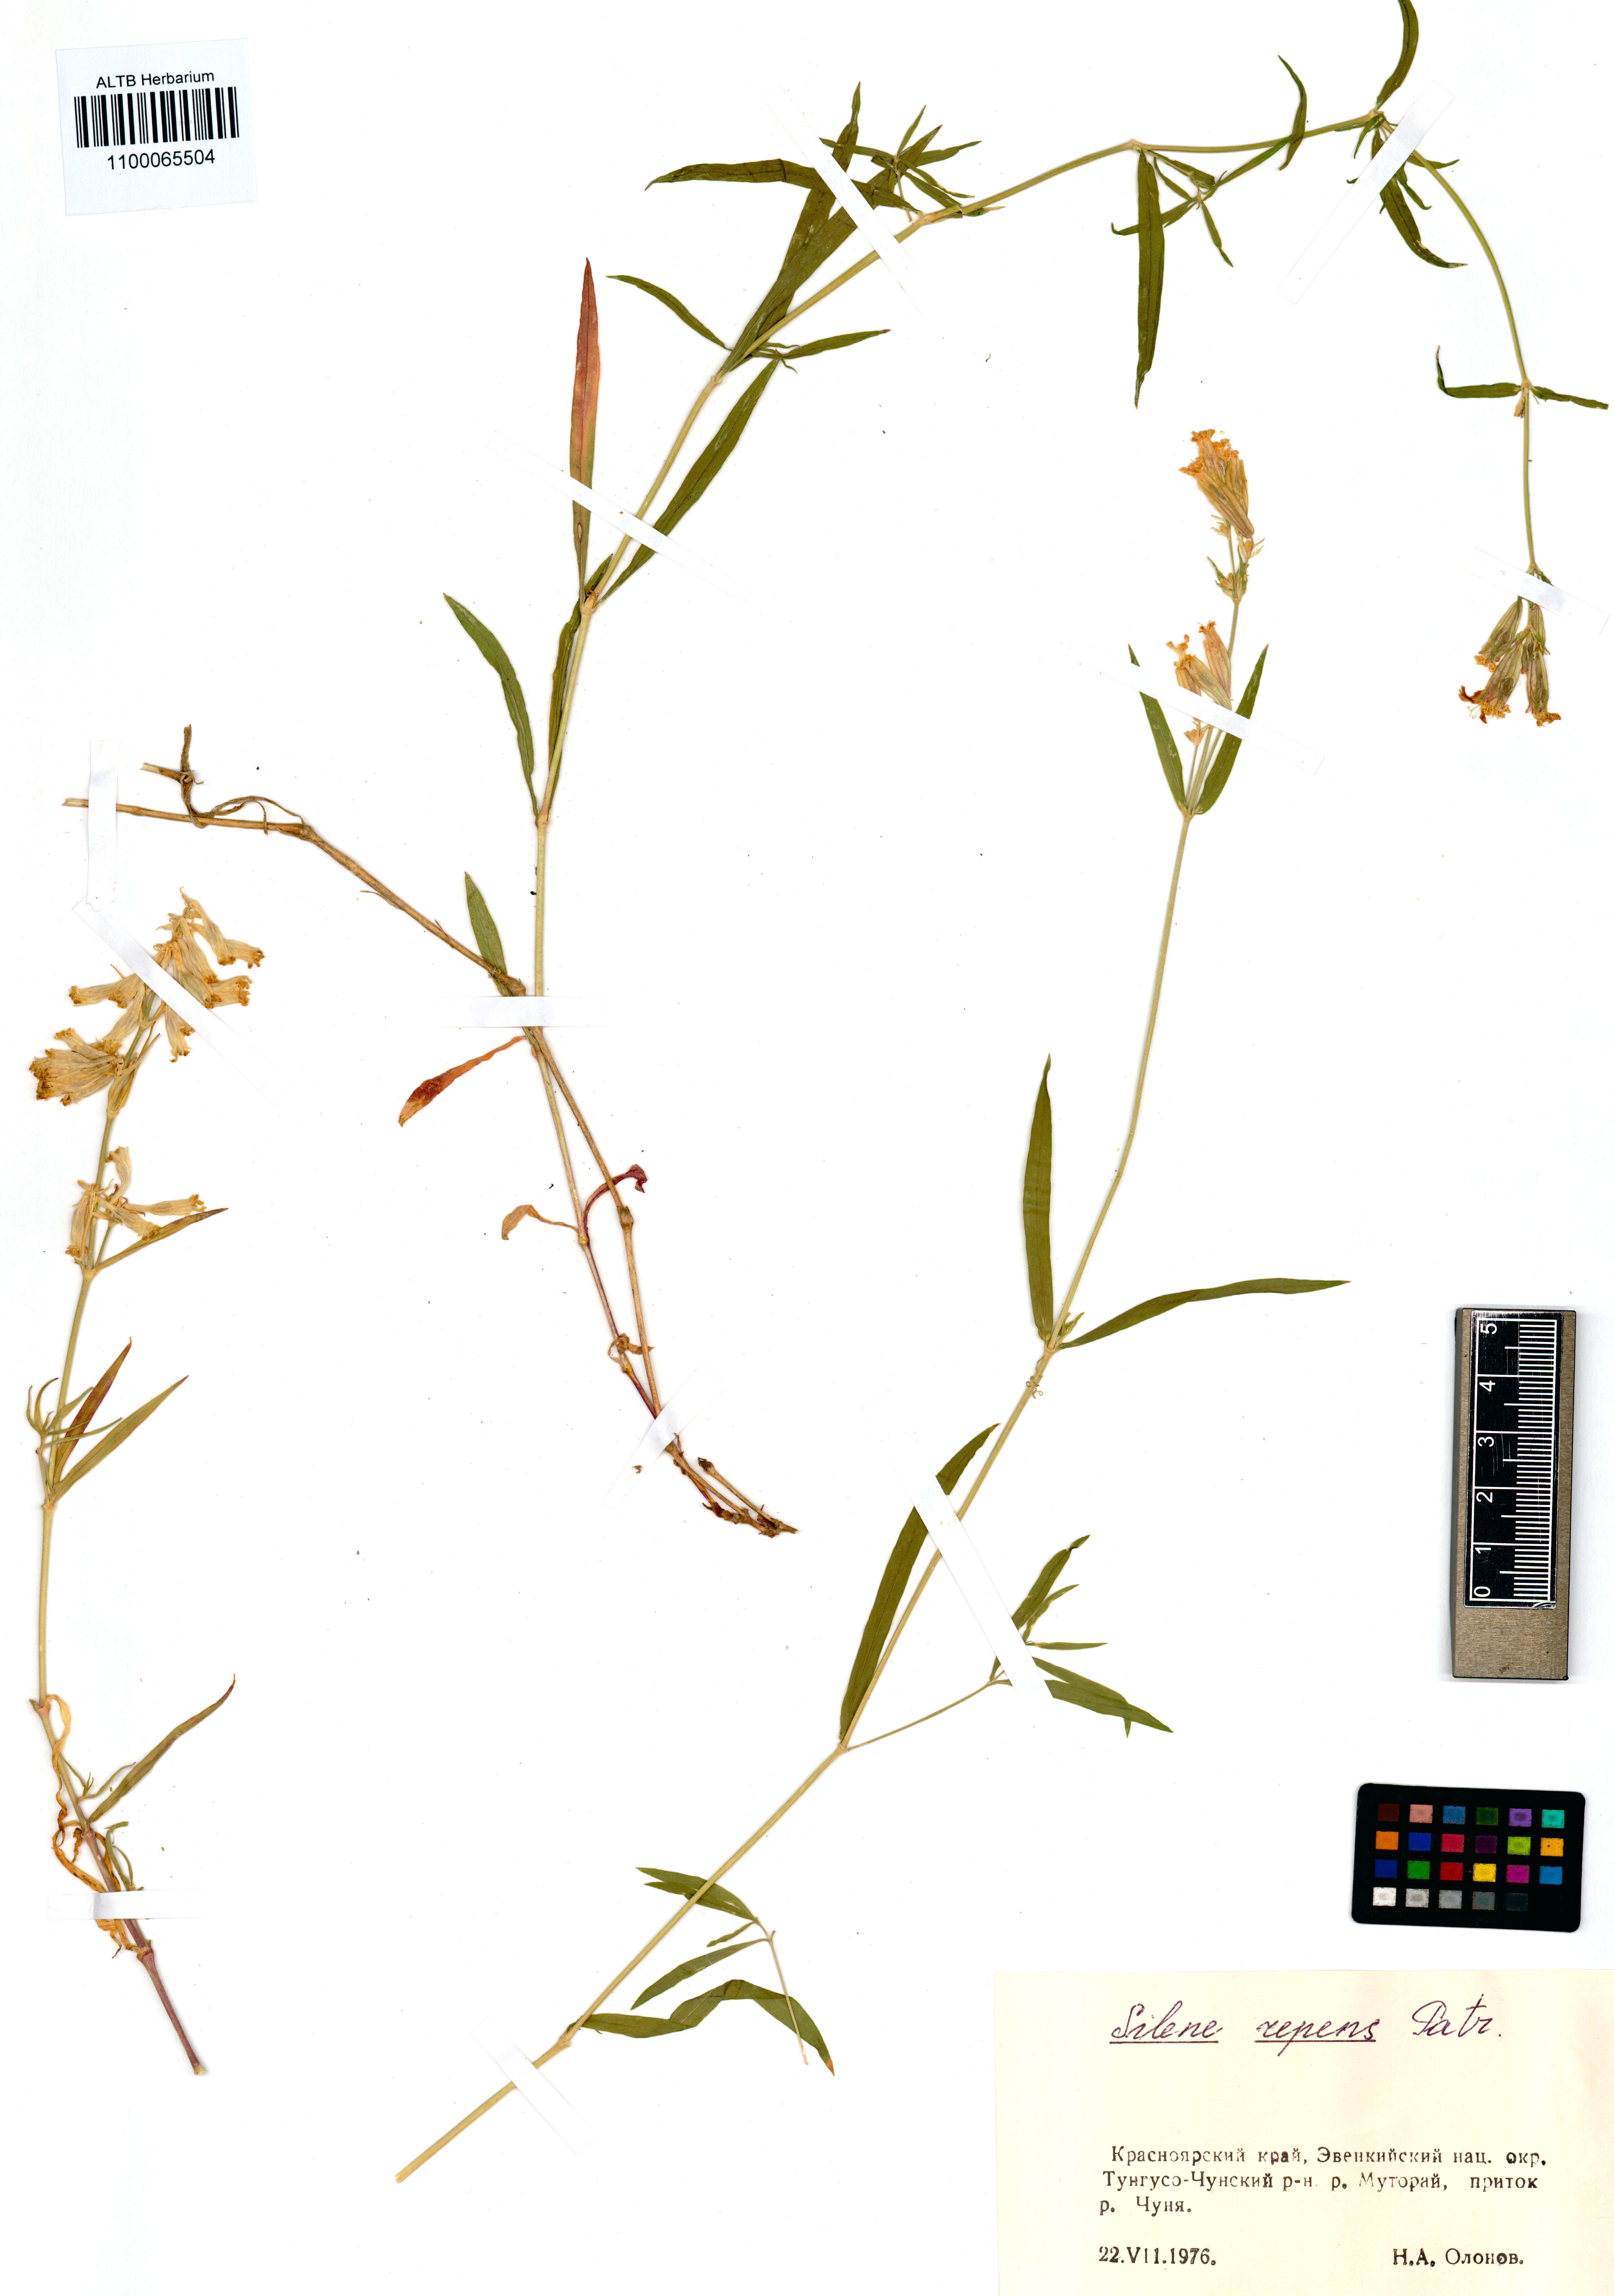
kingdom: Plantae
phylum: Tracheophyta
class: Magnoliopsida
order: Caryophyllales
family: Caryophyllaceae
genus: Silene
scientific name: Silene repens
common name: Pink campion
